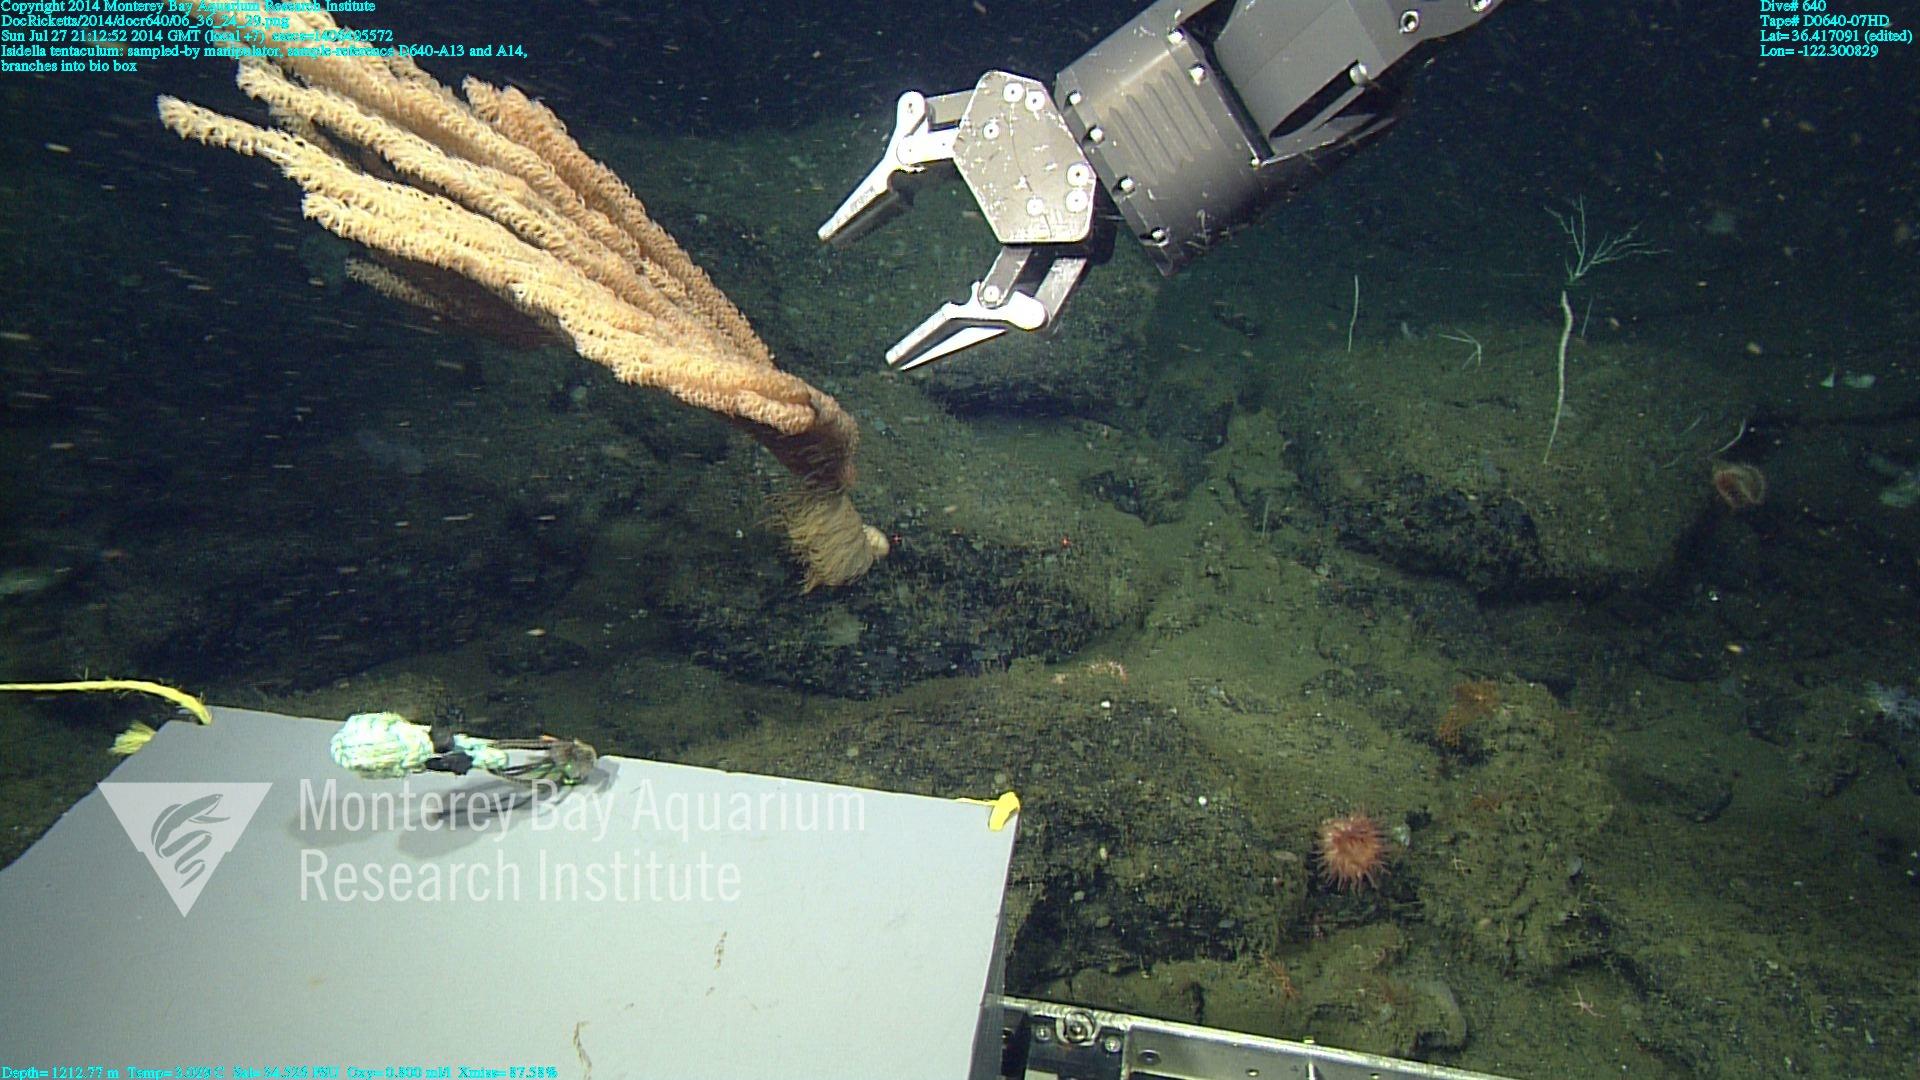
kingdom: Animalia
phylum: Cnidaria
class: Anthozoa
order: Scleralcyonacea
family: Keratoisididae
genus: Isidella
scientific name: Isidella tentaculum
